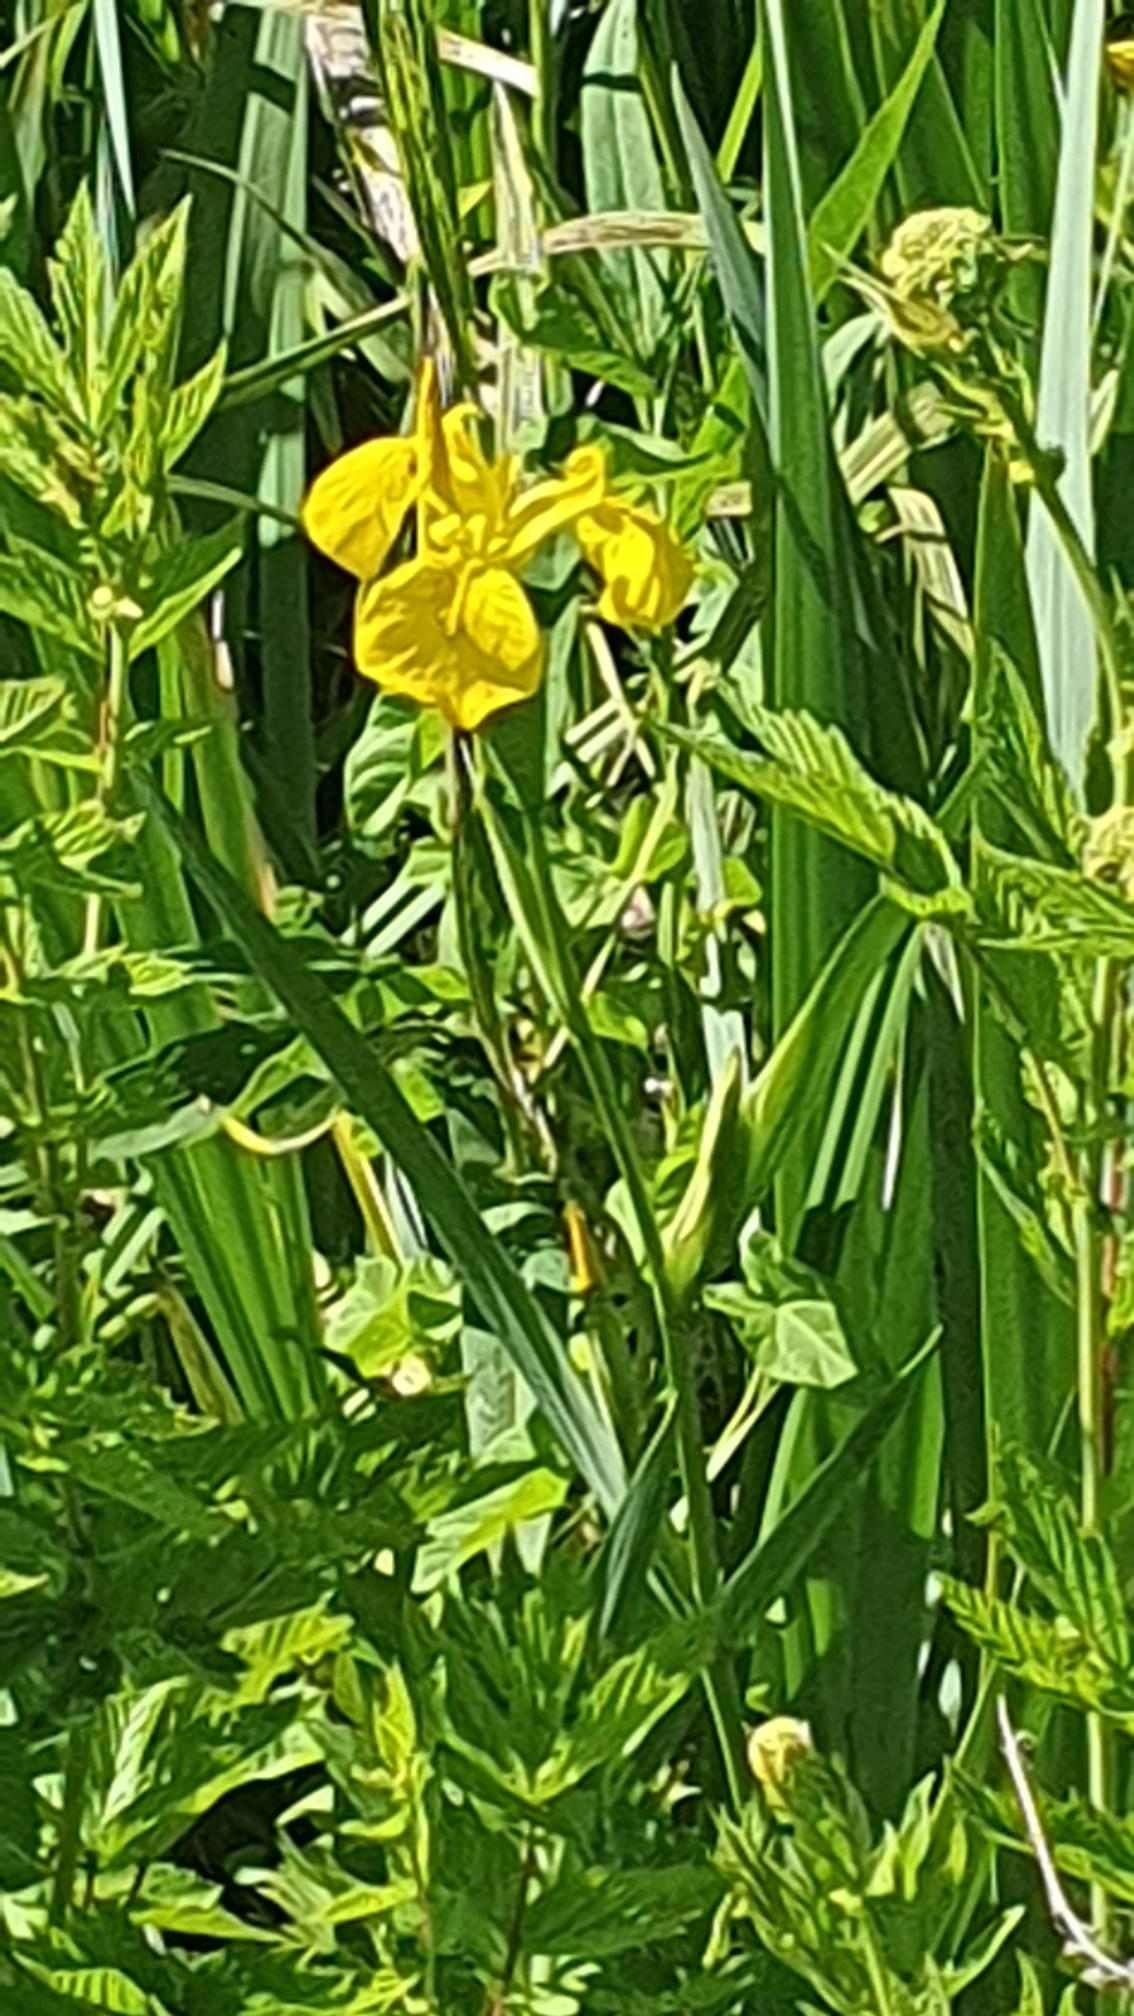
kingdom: Plantae
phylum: Tracheophyta
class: Liliopsida
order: Asparagales
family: Iridaceae
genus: Iris
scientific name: Iris pseudacorus
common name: Gul iris
